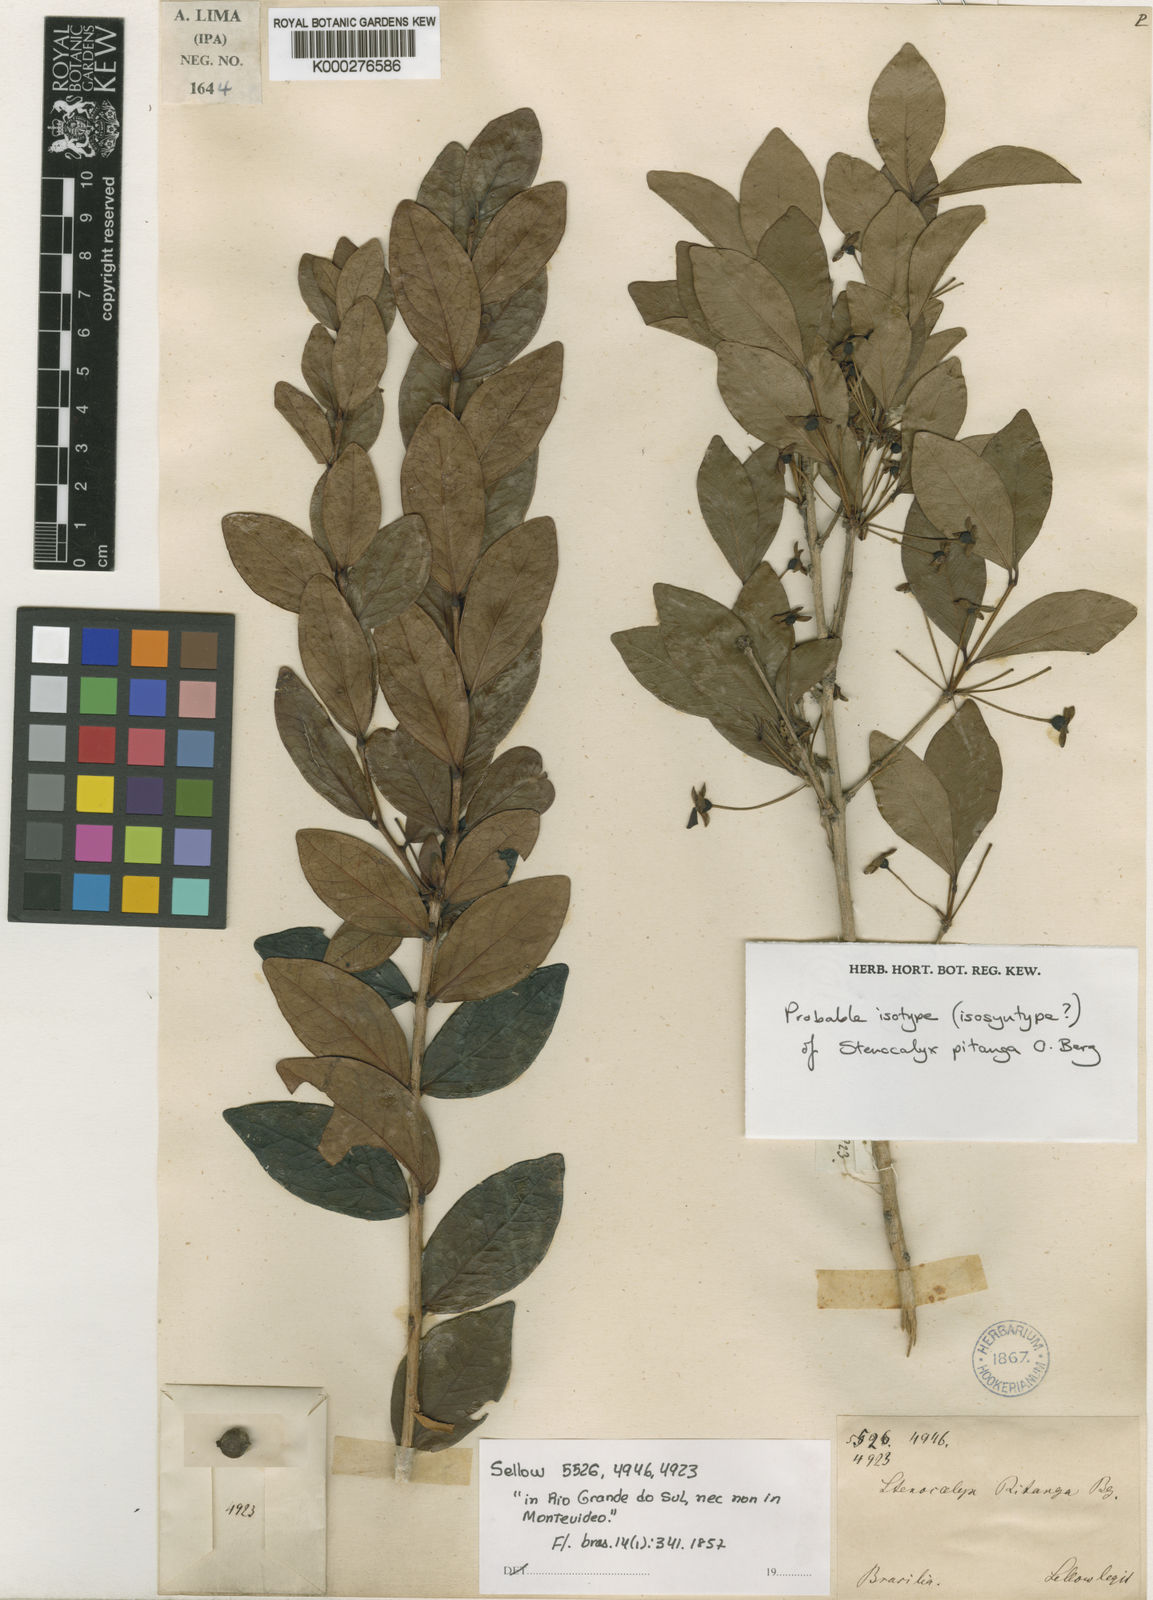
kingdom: Plantae
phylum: Tracheophyta
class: Magnoliopsida
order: Myrtales
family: Myrtaceae
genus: Eugenia
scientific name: Eugenia pitanga
